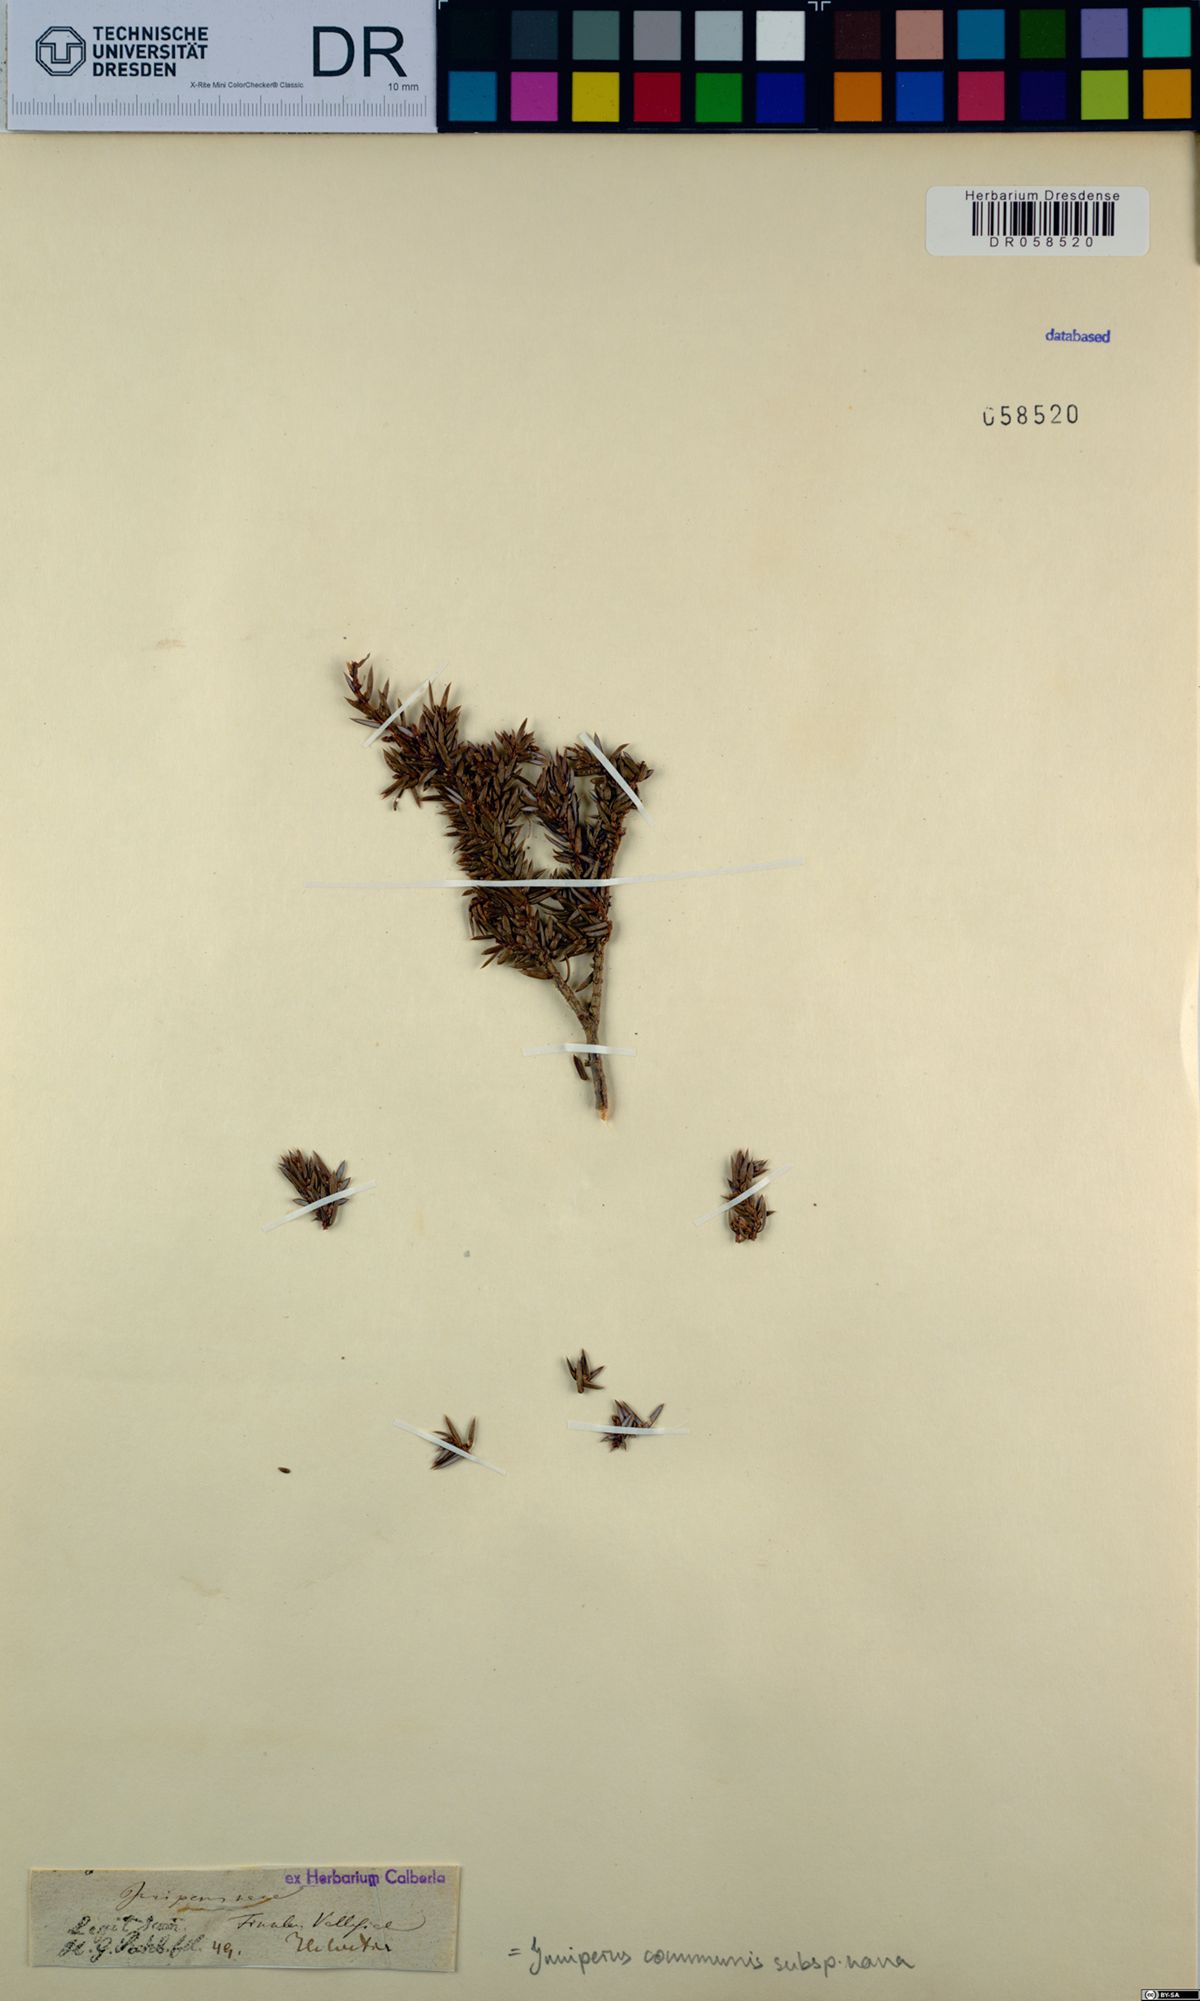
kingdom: Plantae
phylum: Tracheophyta
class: Pinopsida
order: Pinales
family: Cupressaceae
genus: Juniperus
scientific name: Juniperus communis
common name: Common juniper
